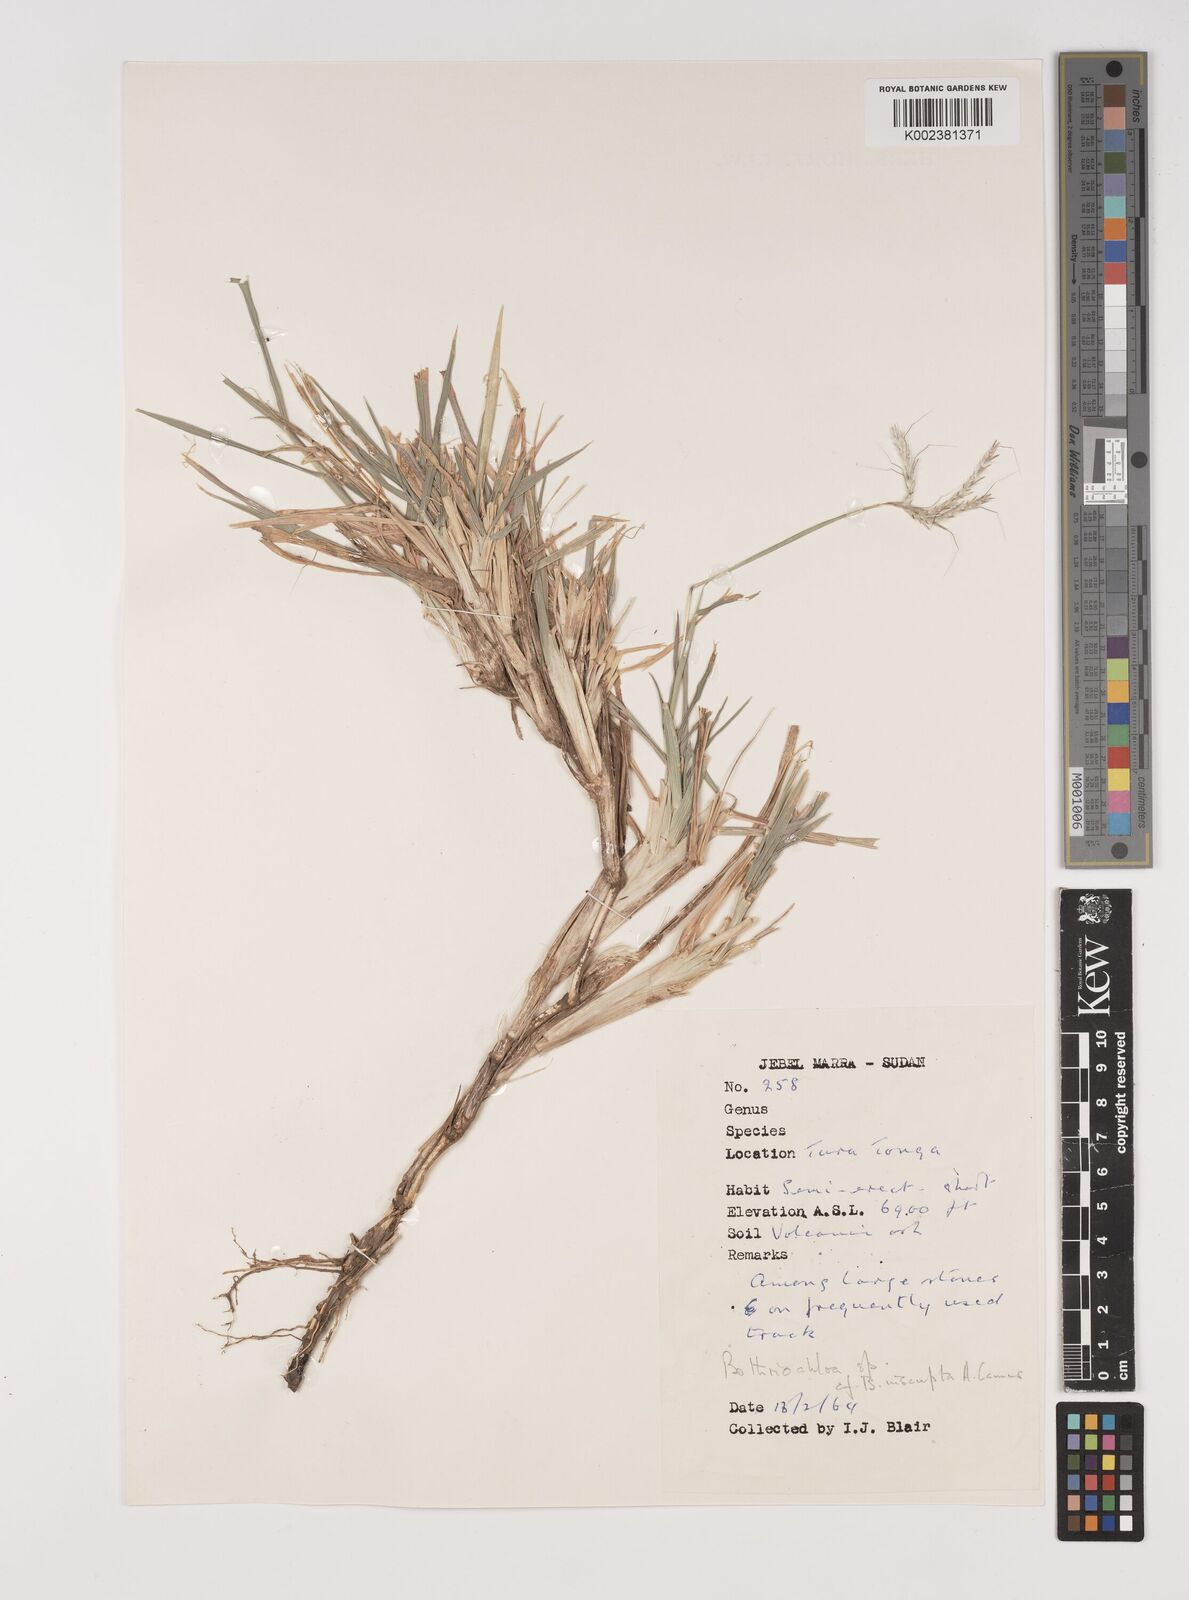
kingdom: Plantae
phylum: Tracheophyta
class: Liliopsida
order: Poales
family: Poaceae
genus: Bothriochloa
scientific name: Bothriochloa insculpta
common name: Creeping-bluegrass
